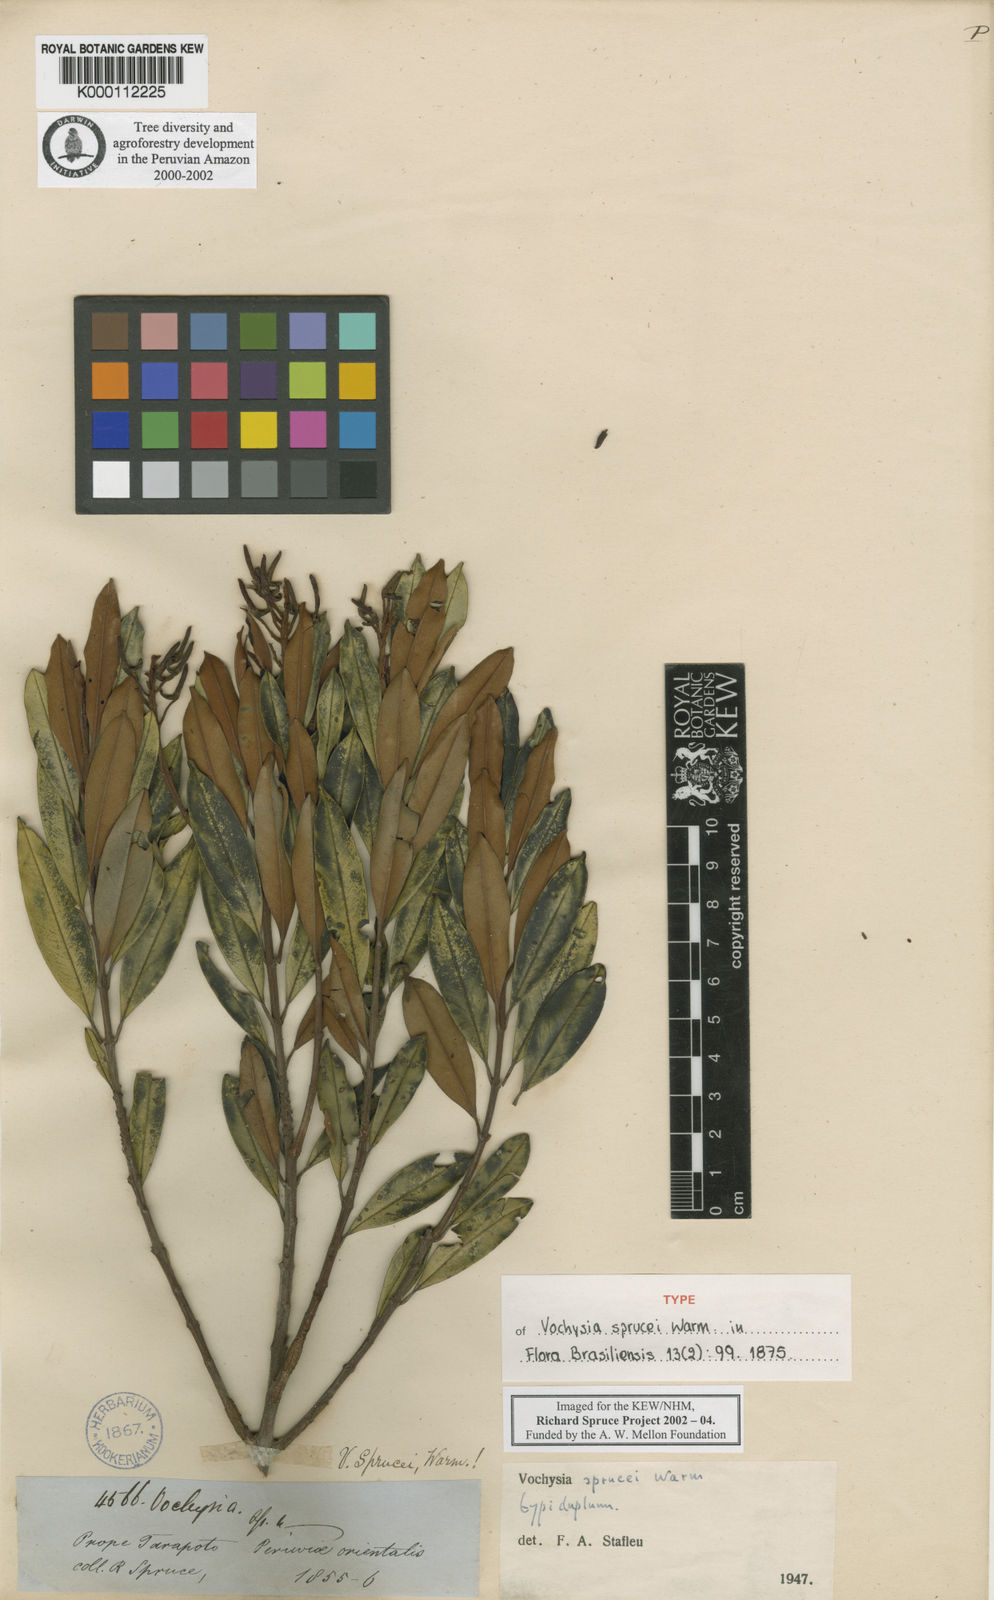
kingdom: Plantae
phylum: Tracheophyta
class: Magnoliopsida
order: Myrtales
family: Vochysiaceae
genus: Vochysia
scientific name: Vochysia sprucei
